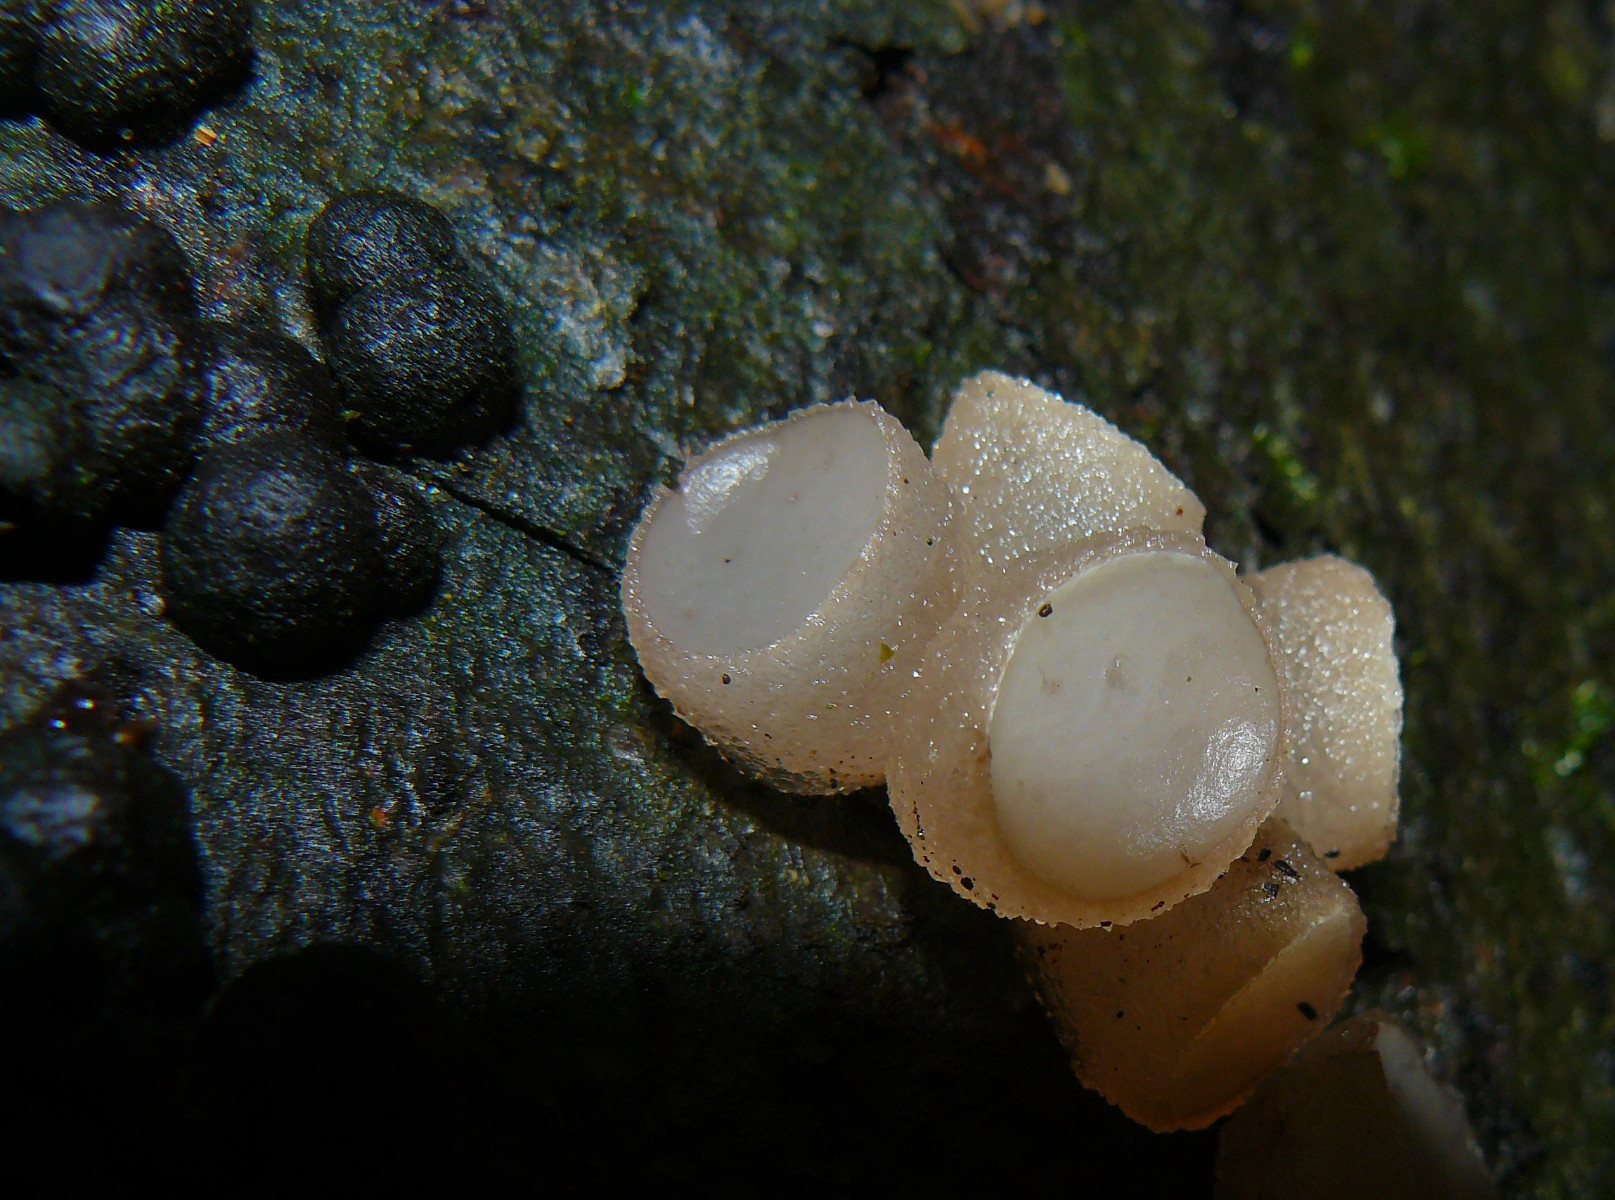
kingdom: Fungi
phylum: Ascomycota
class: Leotiomycetes
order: Helotiales
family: Gelatinodiscaceae
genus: Neobulgaria
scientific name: Neobulgaria pura
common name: bleg bævreskive
